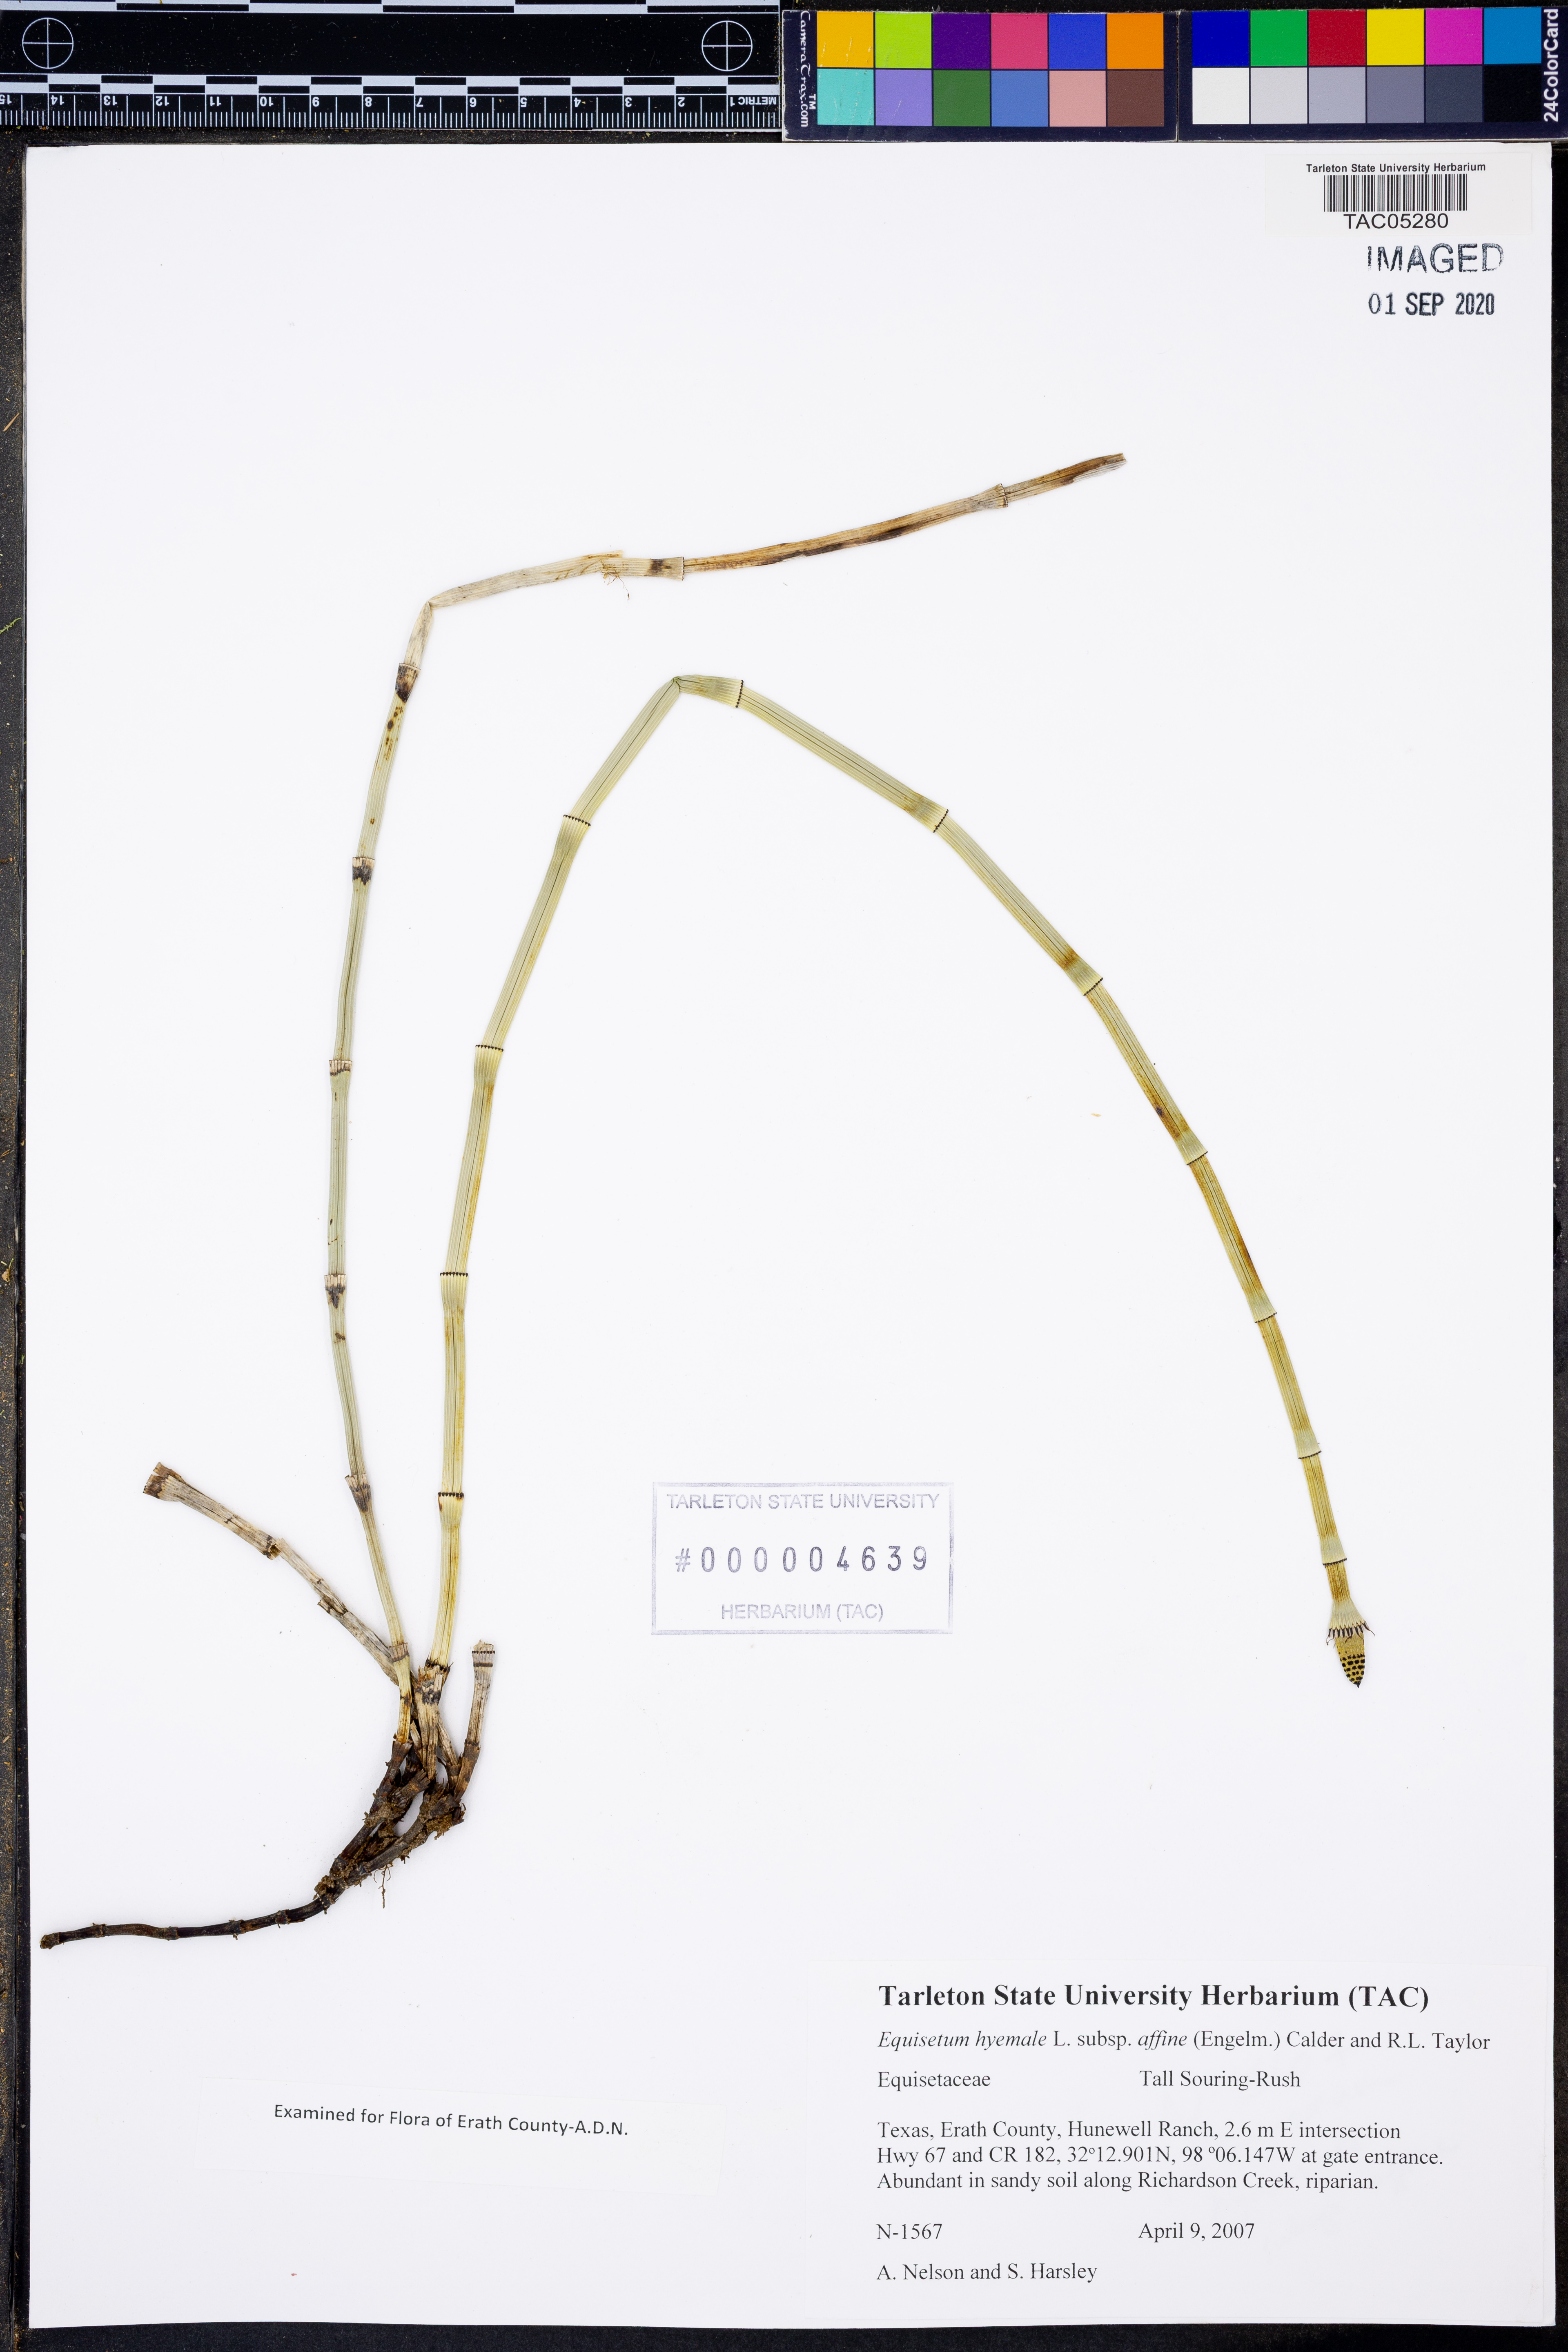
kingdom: Plantae
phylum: Tracheophyta
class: Polypodiopsida
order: Equisetales
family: Equisetaceae
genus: Equisetum
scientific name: Equisetum praealtum
